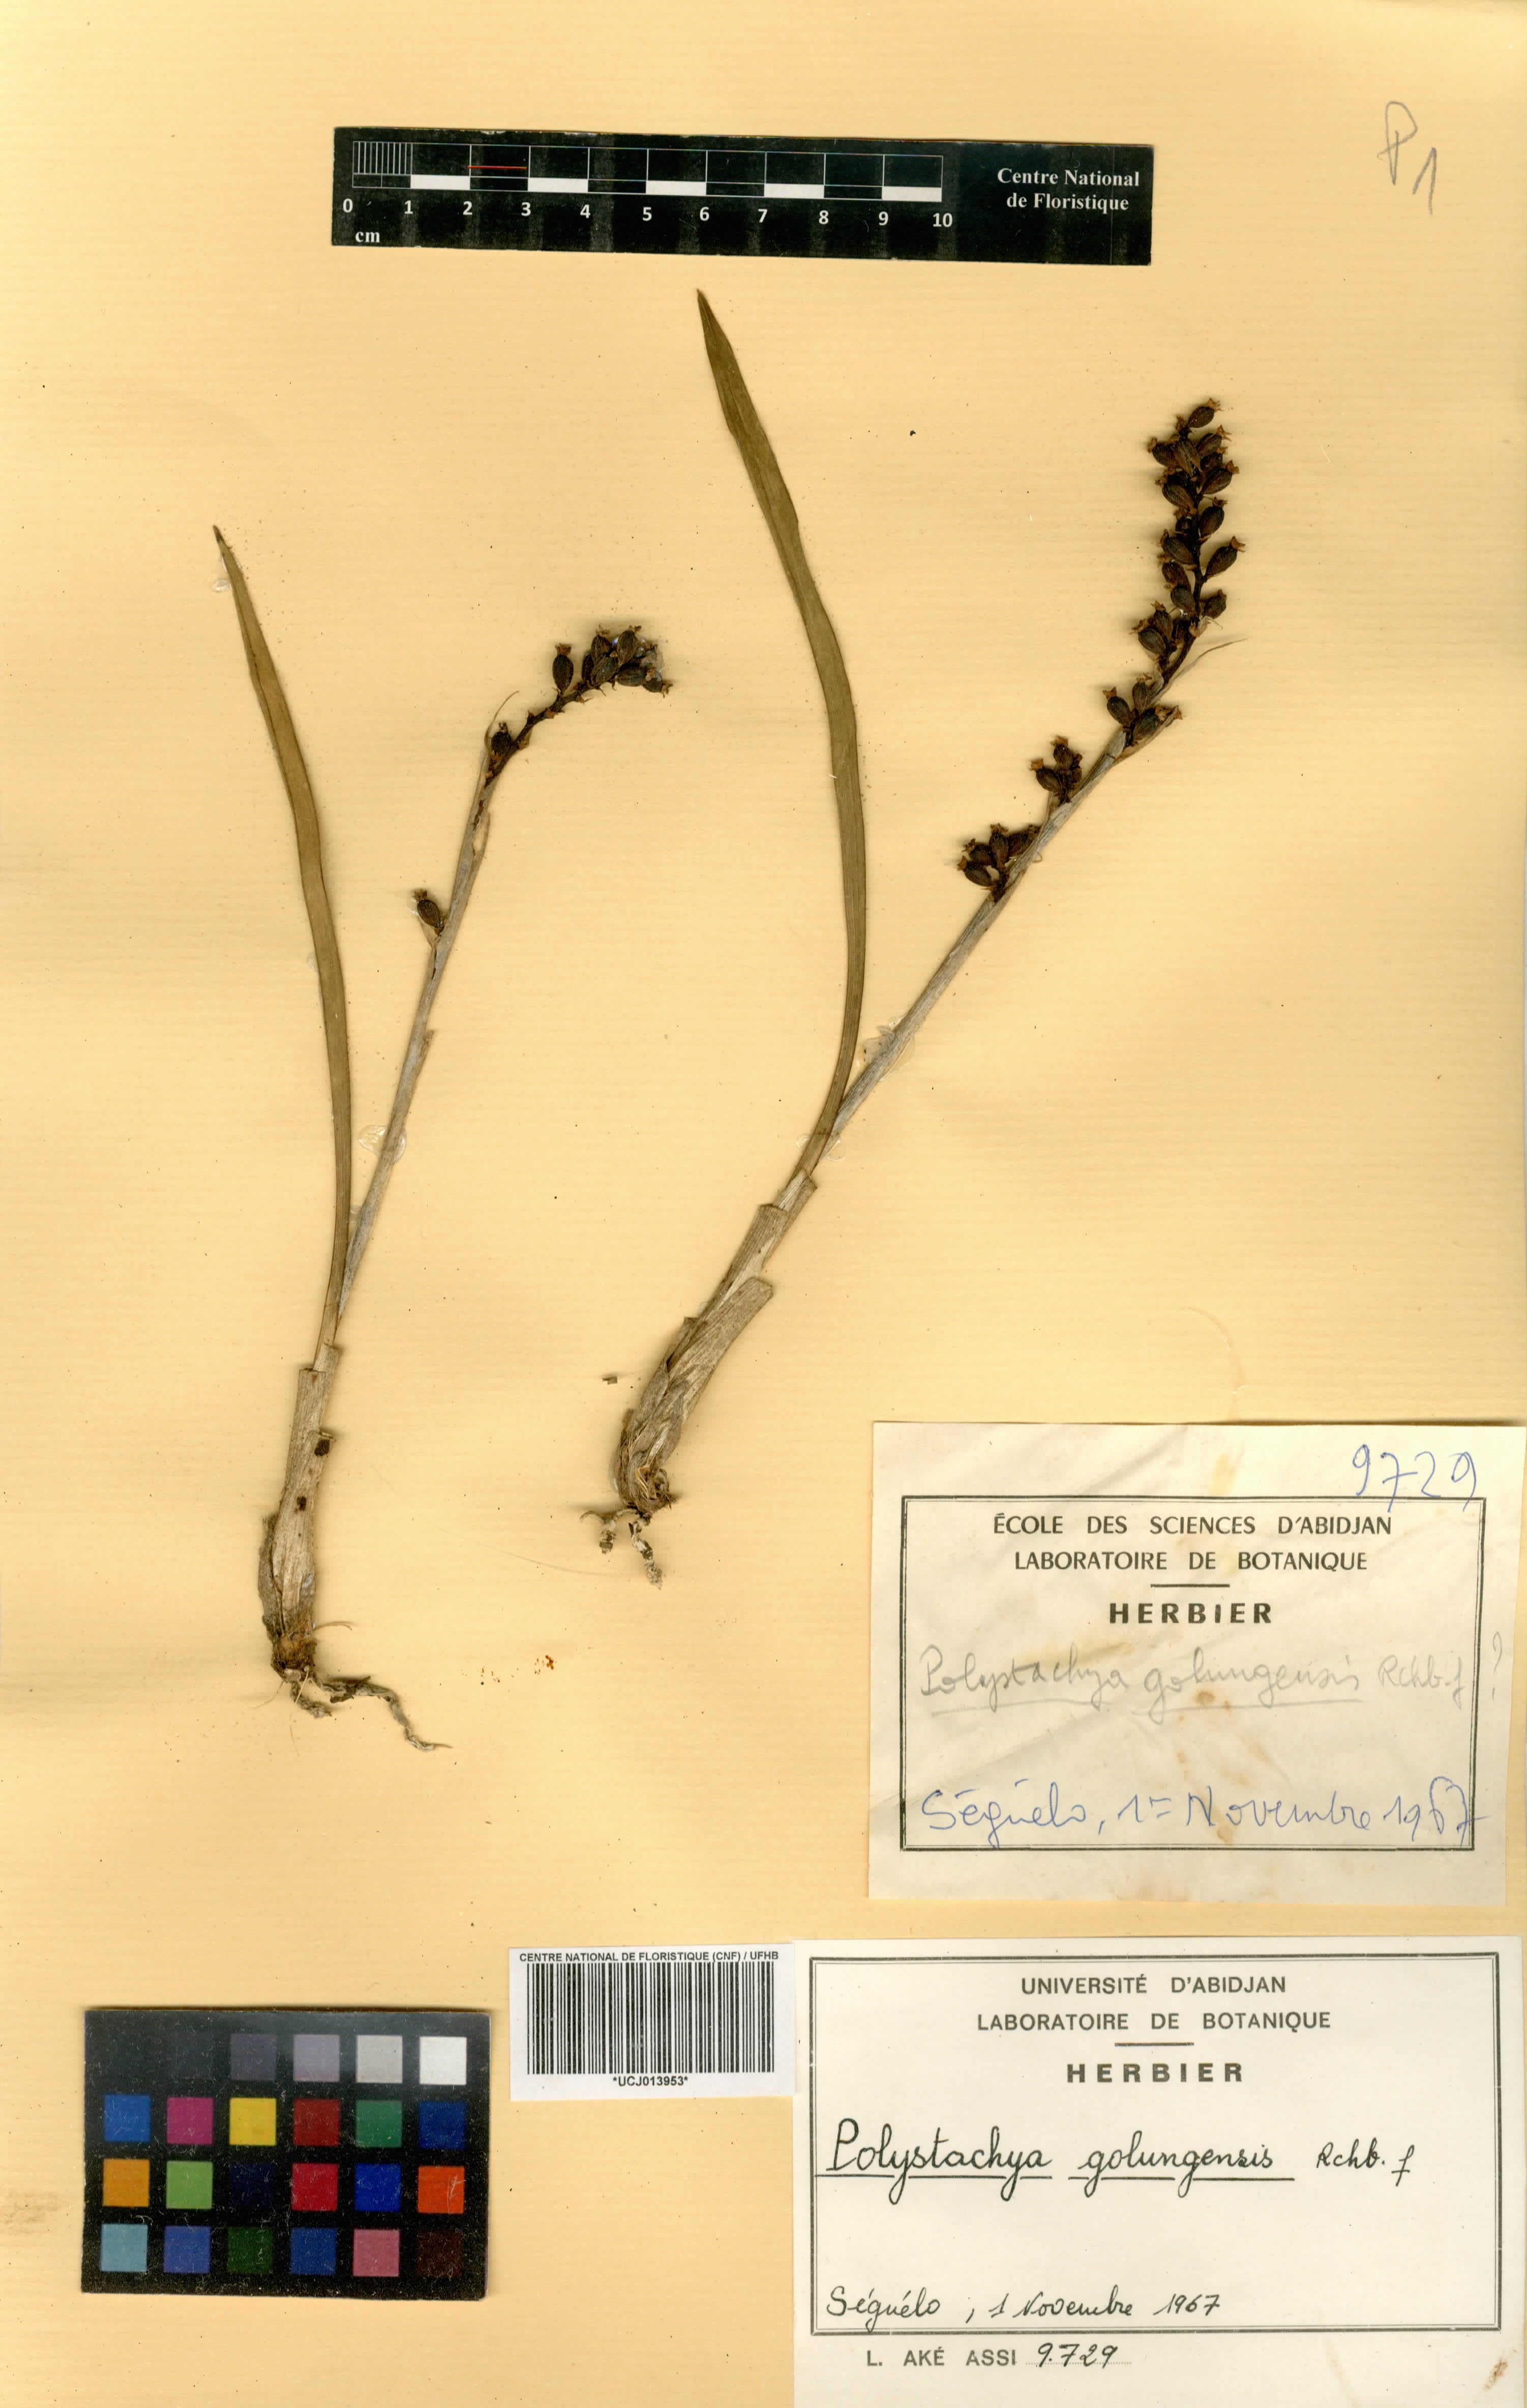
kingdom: Plantae
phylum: Tracheophyta
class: Liliopsida
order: Asparagales
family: Orchidaceae
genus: Polystachya
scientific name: Polystachya golungensis
